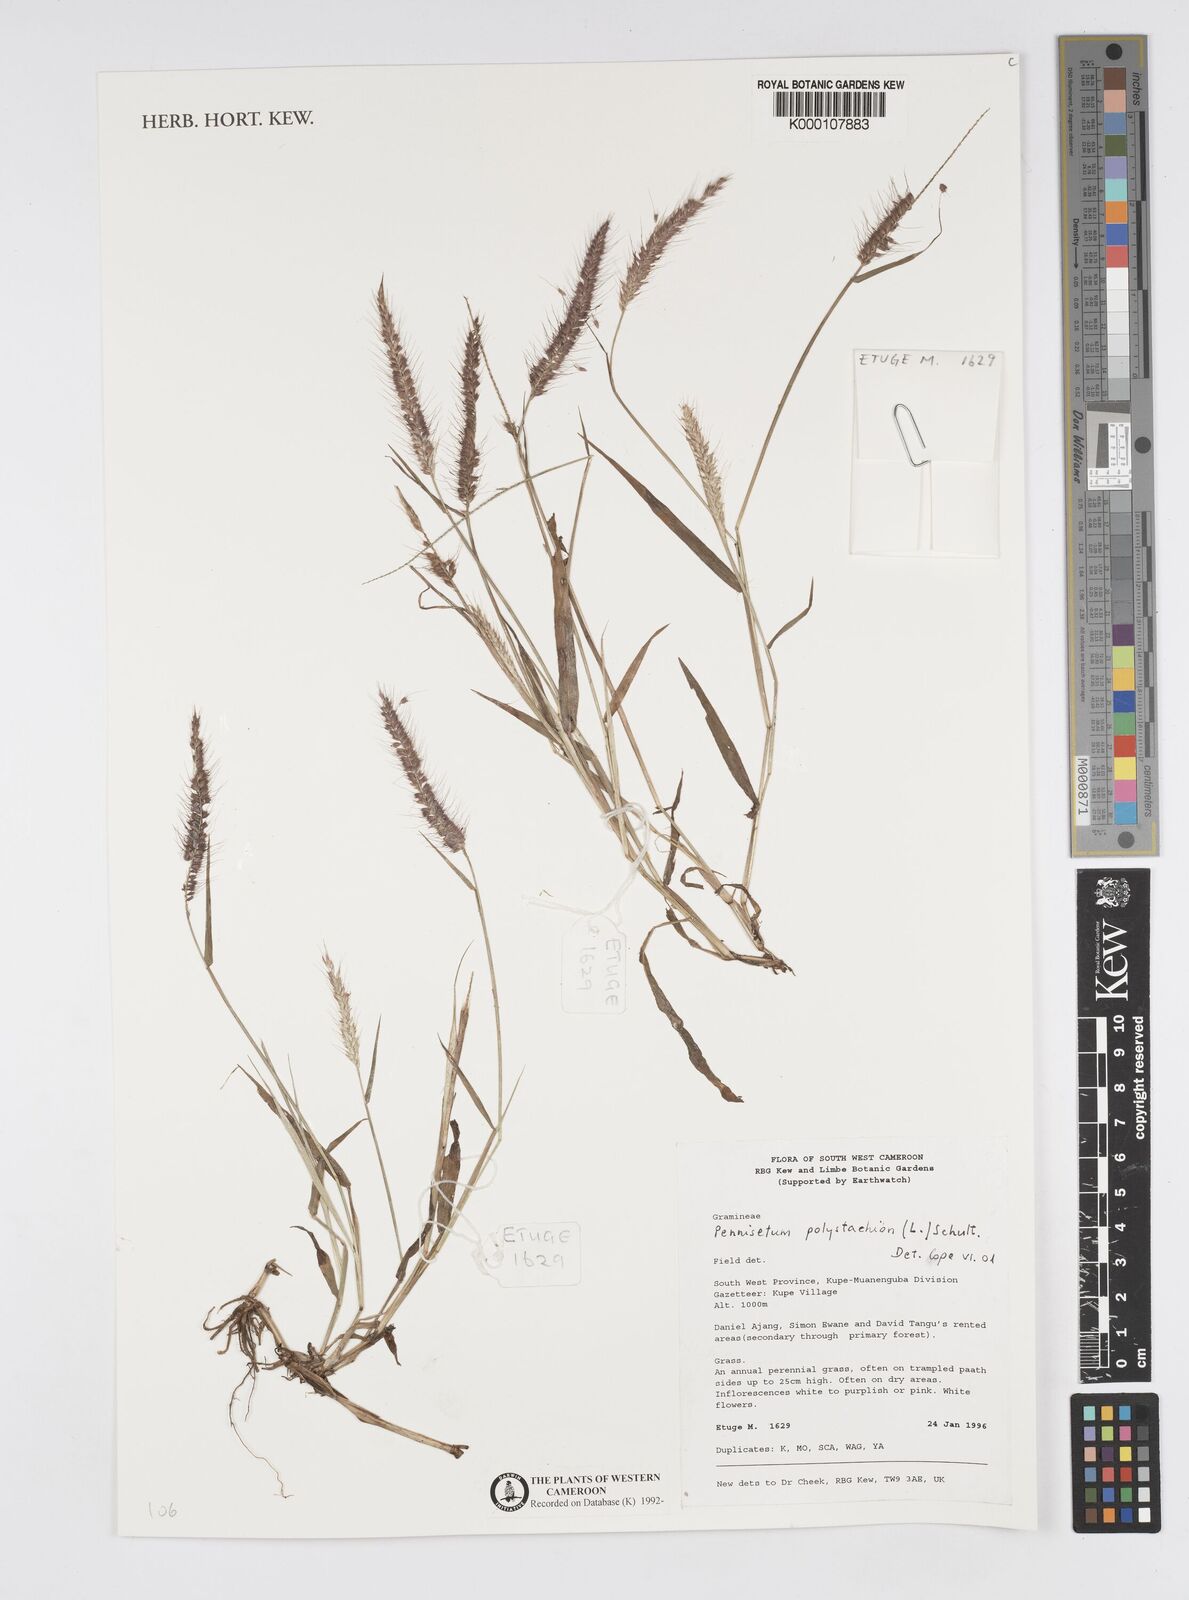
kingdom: Plantae
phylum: Tracheophyta
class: Liliopsida
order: Poales
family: Poaceae
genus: Setaria
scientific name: Setaria parviflora
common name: Knotroot bristle-grass
